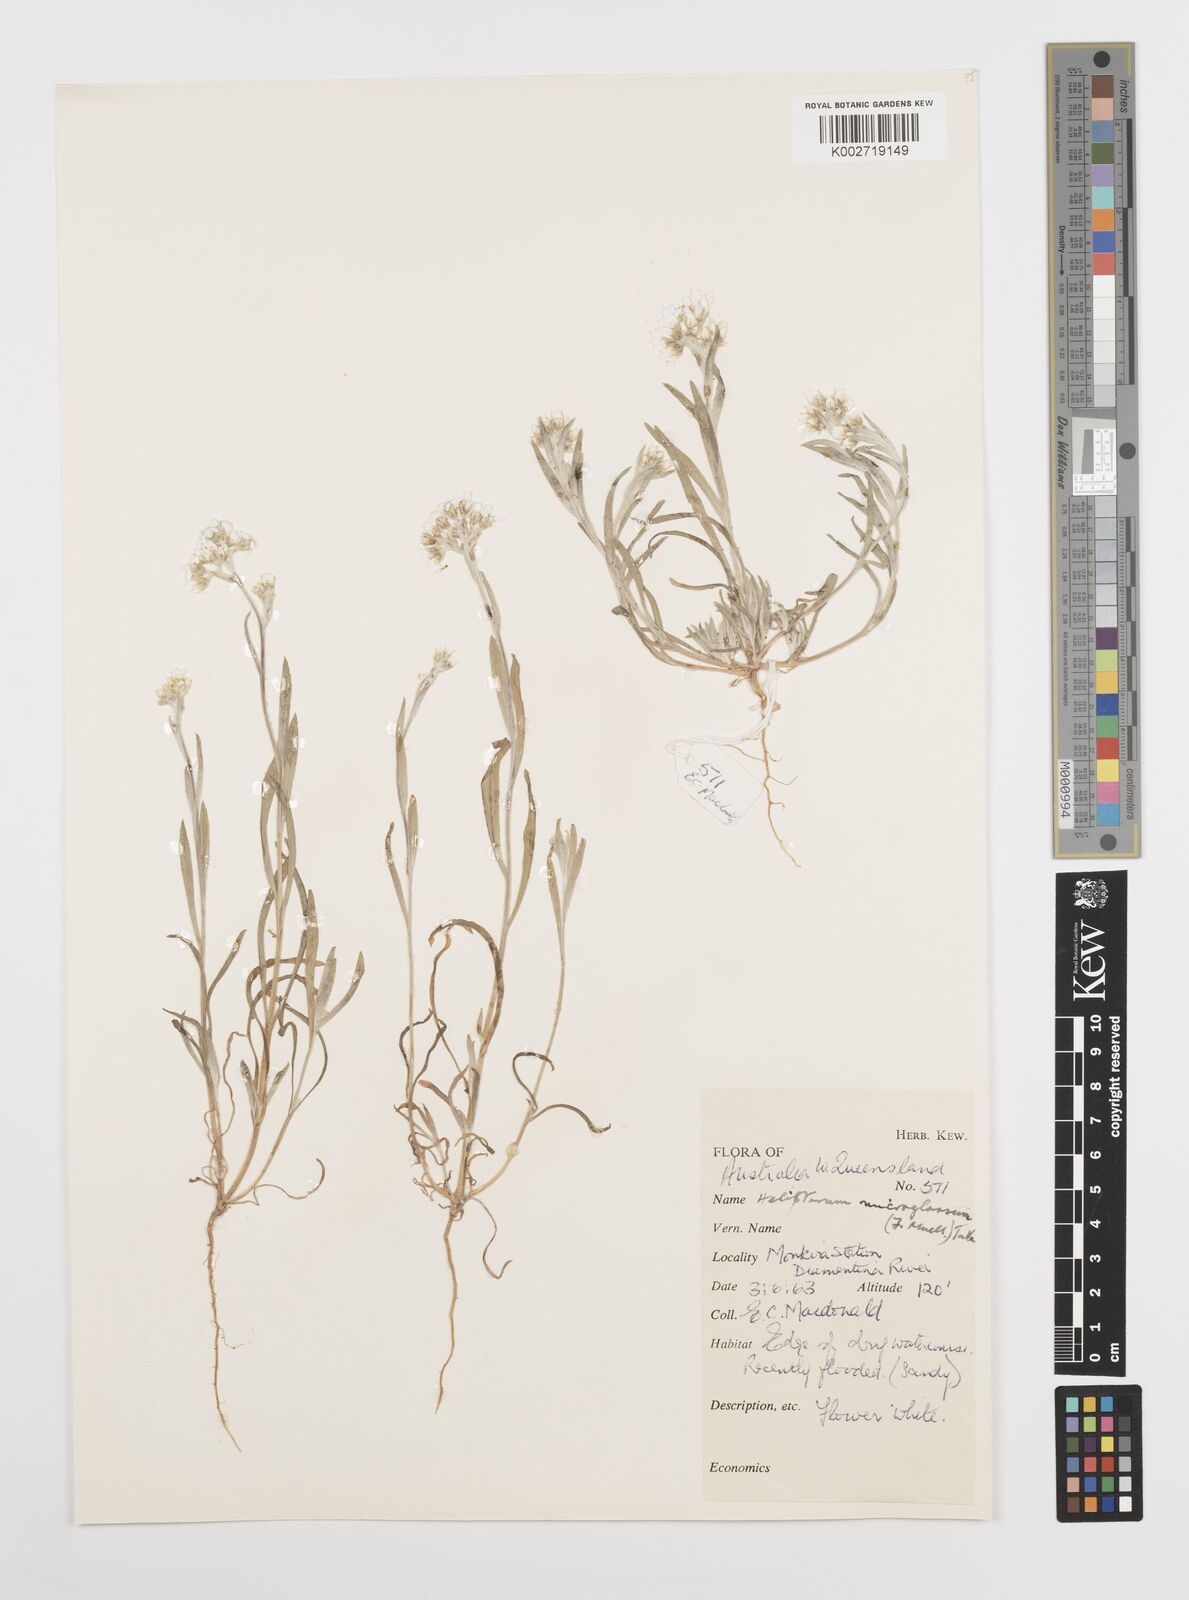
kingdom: Plantae
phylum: Tracheophyta
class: Magnoliopsida
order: Asterales
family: Asteraceae
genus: Rhodanthe
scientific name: Rhodanthe microglossa
